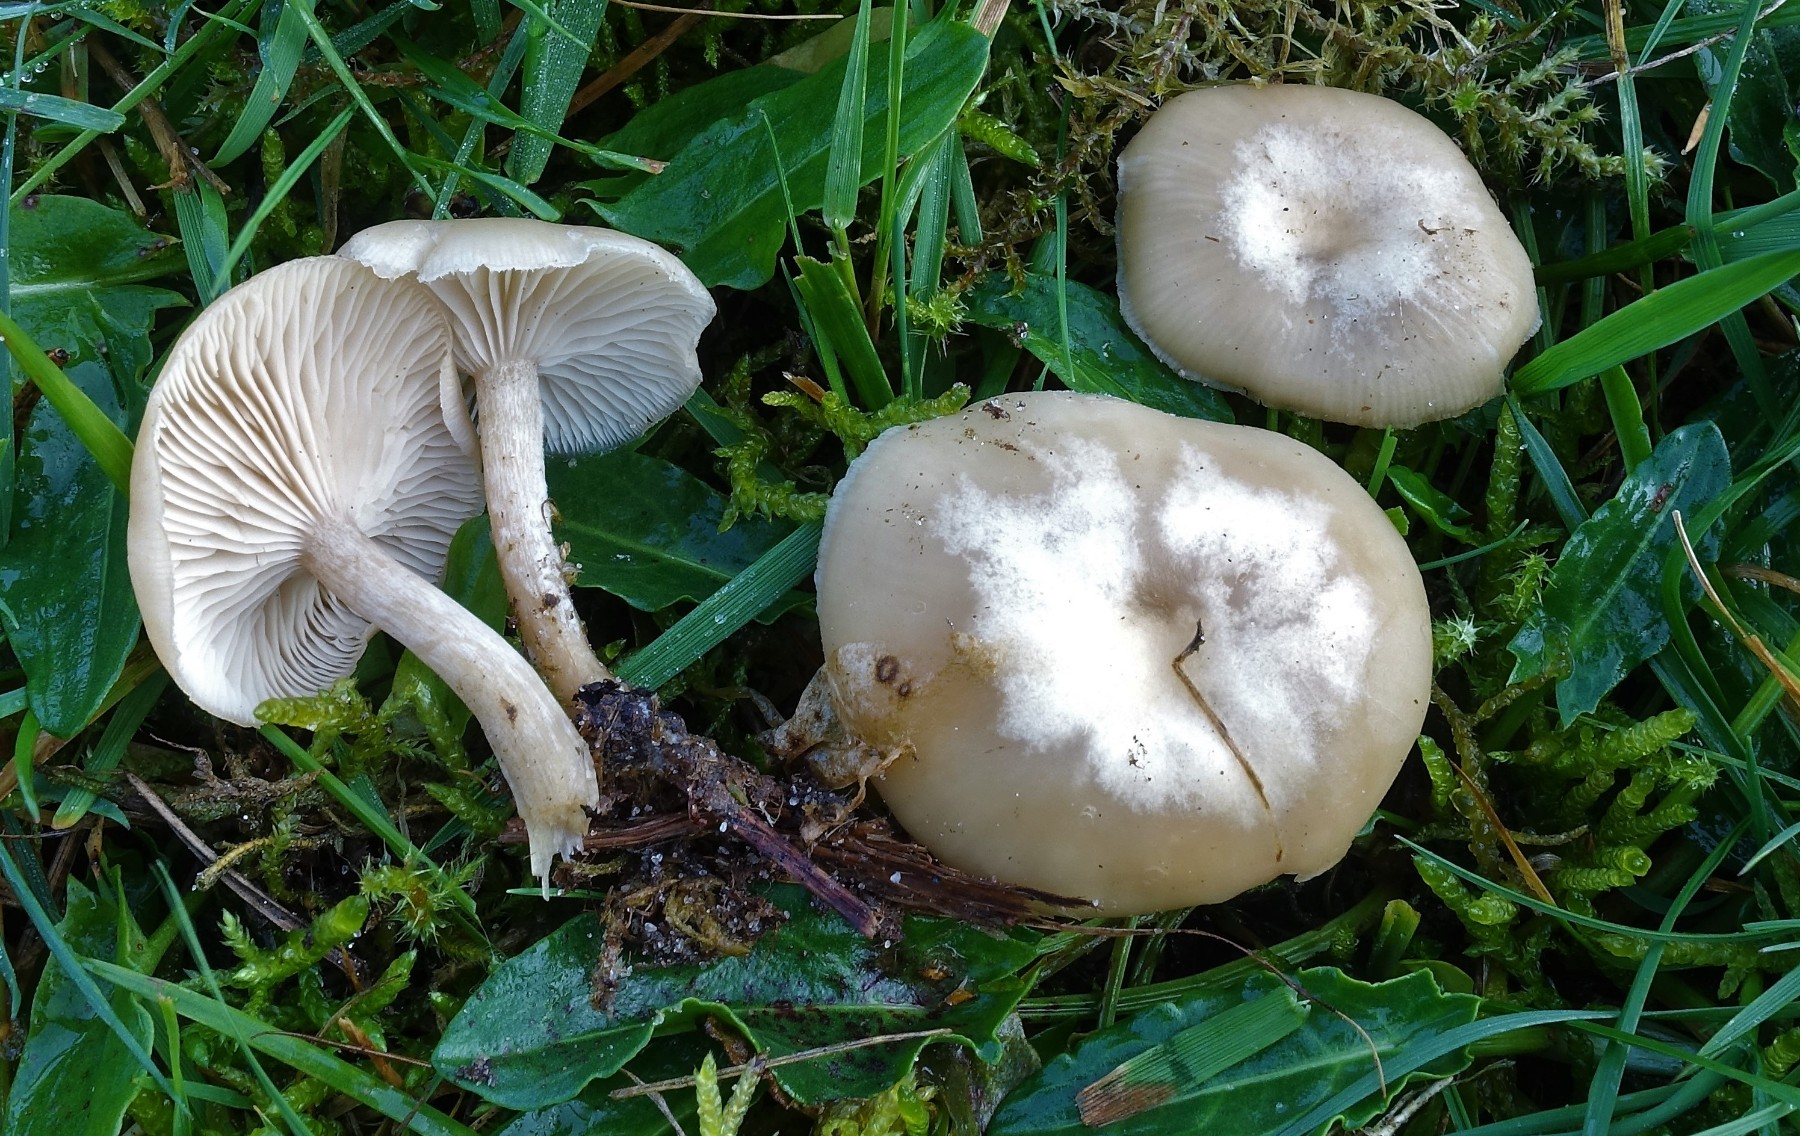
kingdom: Fungi
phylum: Basidiomycota
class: Agaricomycetes
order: Agaricales
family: Tricholomataceae
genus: Clitocybe
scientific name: Clitocybe fragrans
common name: vellugtende tragthat
